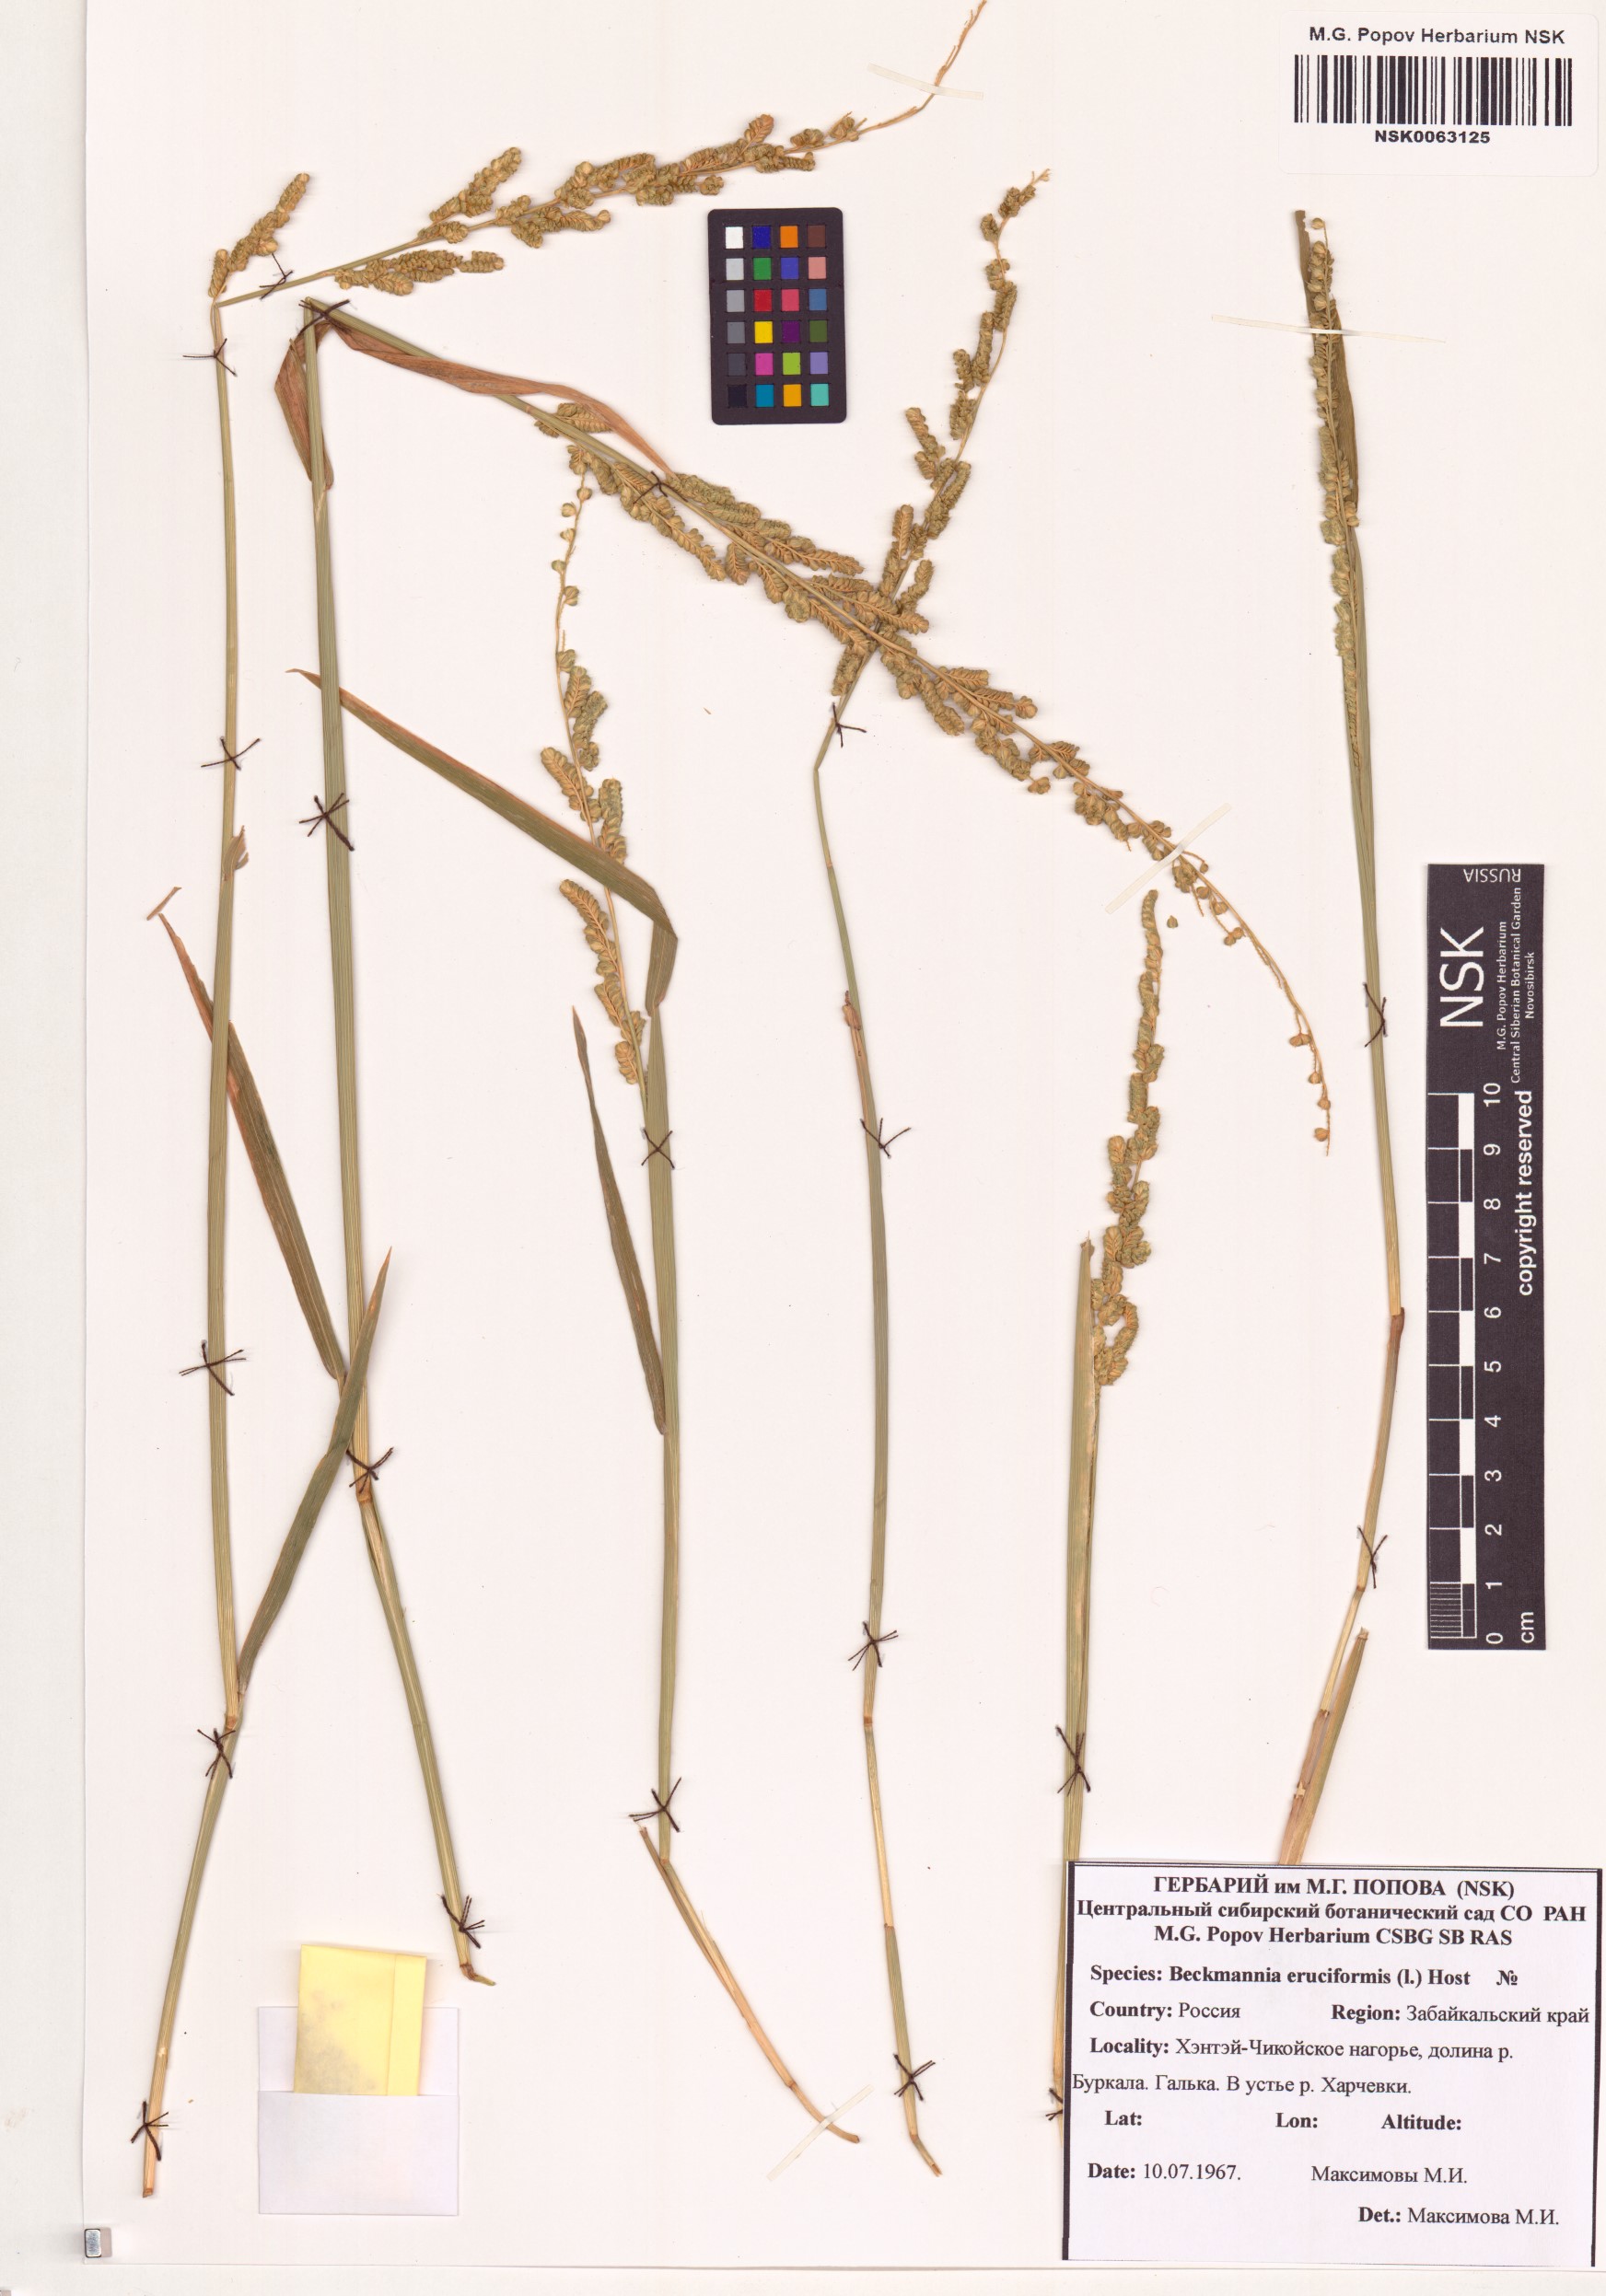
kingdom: Plantae
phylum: Tracheophyta
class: Liliopsida
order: Poales
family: Poaceae
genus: Beckmannia
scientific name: Beckmannia eruciformis
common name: European slough-grass
